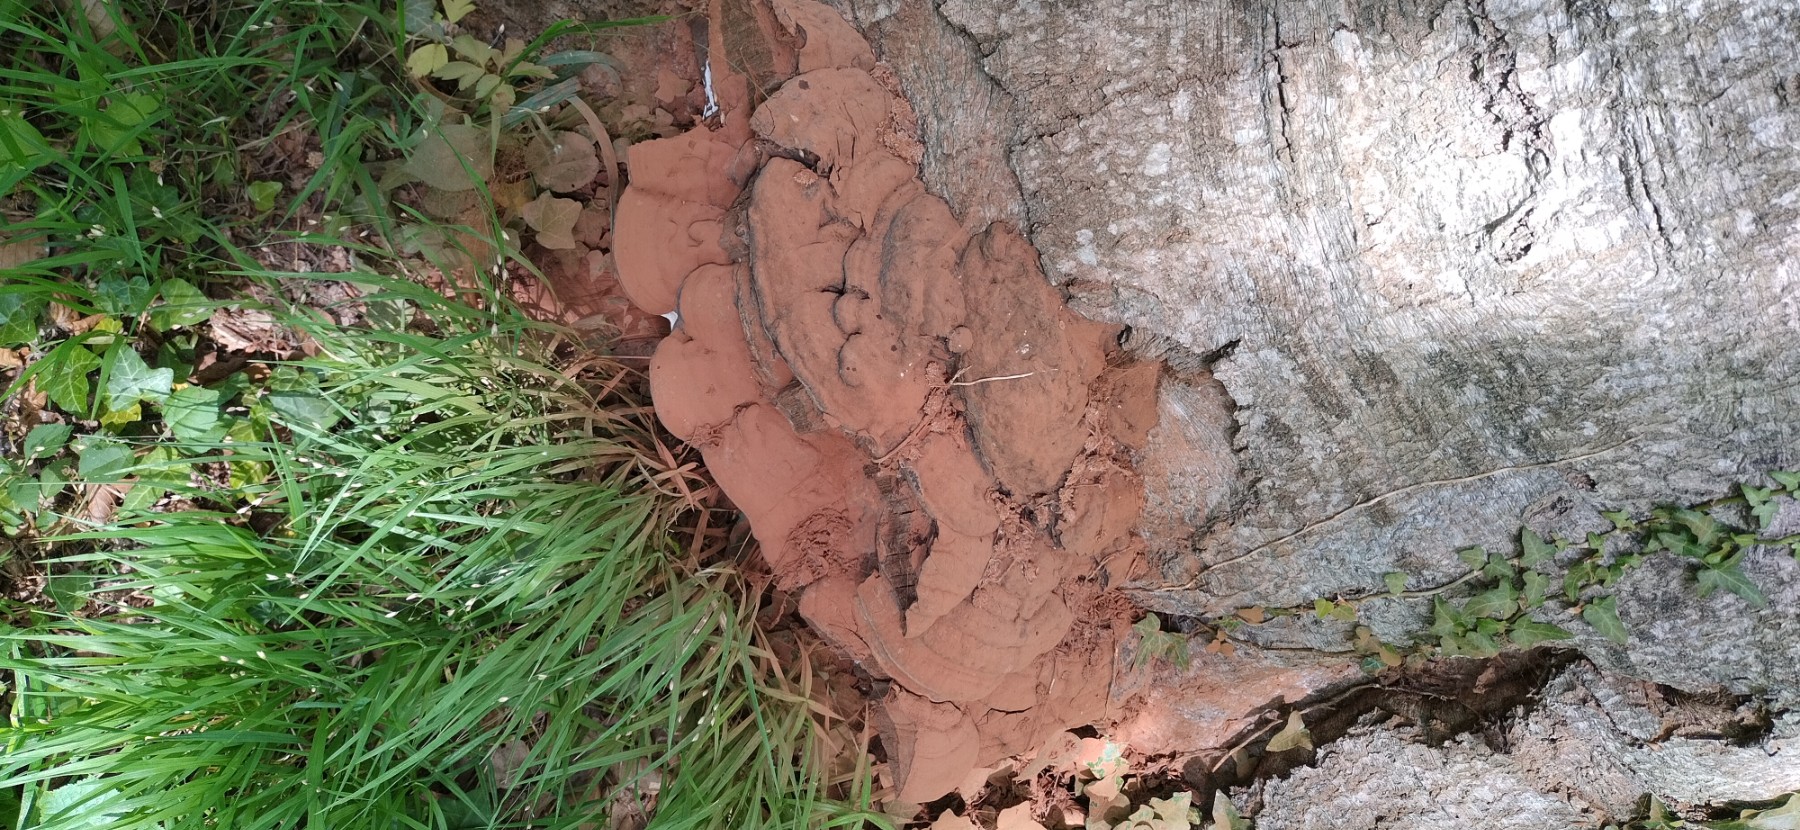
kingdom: Fungi
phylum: Basidiomycota
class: Agaricomycetes
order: Polyporales
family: Polyporaceae
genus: Ganoderma
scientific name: Ganoderma pfeifferi
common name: kobberrød lakporesvamp
